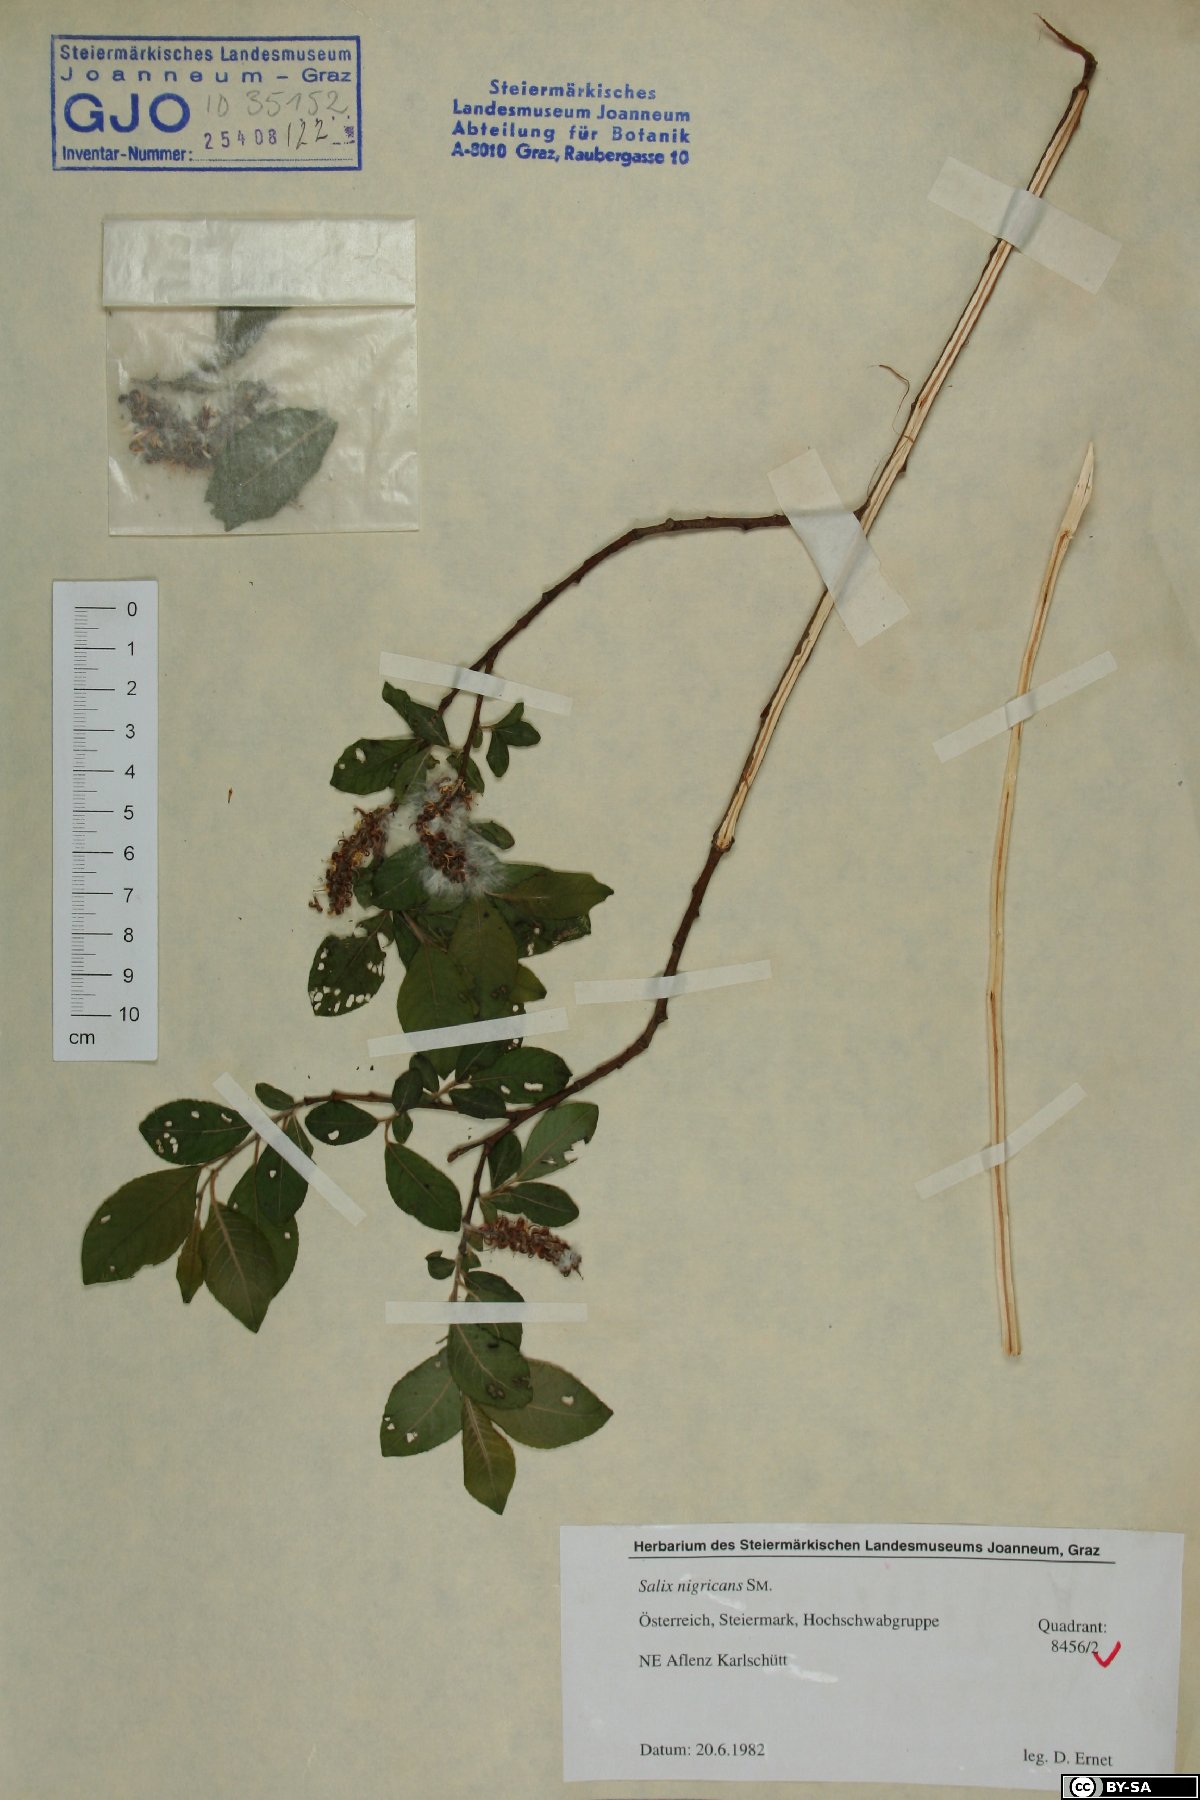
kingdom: Plantae
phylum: Tracheophyta
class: Magnoliopsida
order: Malpighiales
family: Salicaceae
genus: Salix
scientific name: Salix myrsinifolia
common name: Dark-leaved willow
